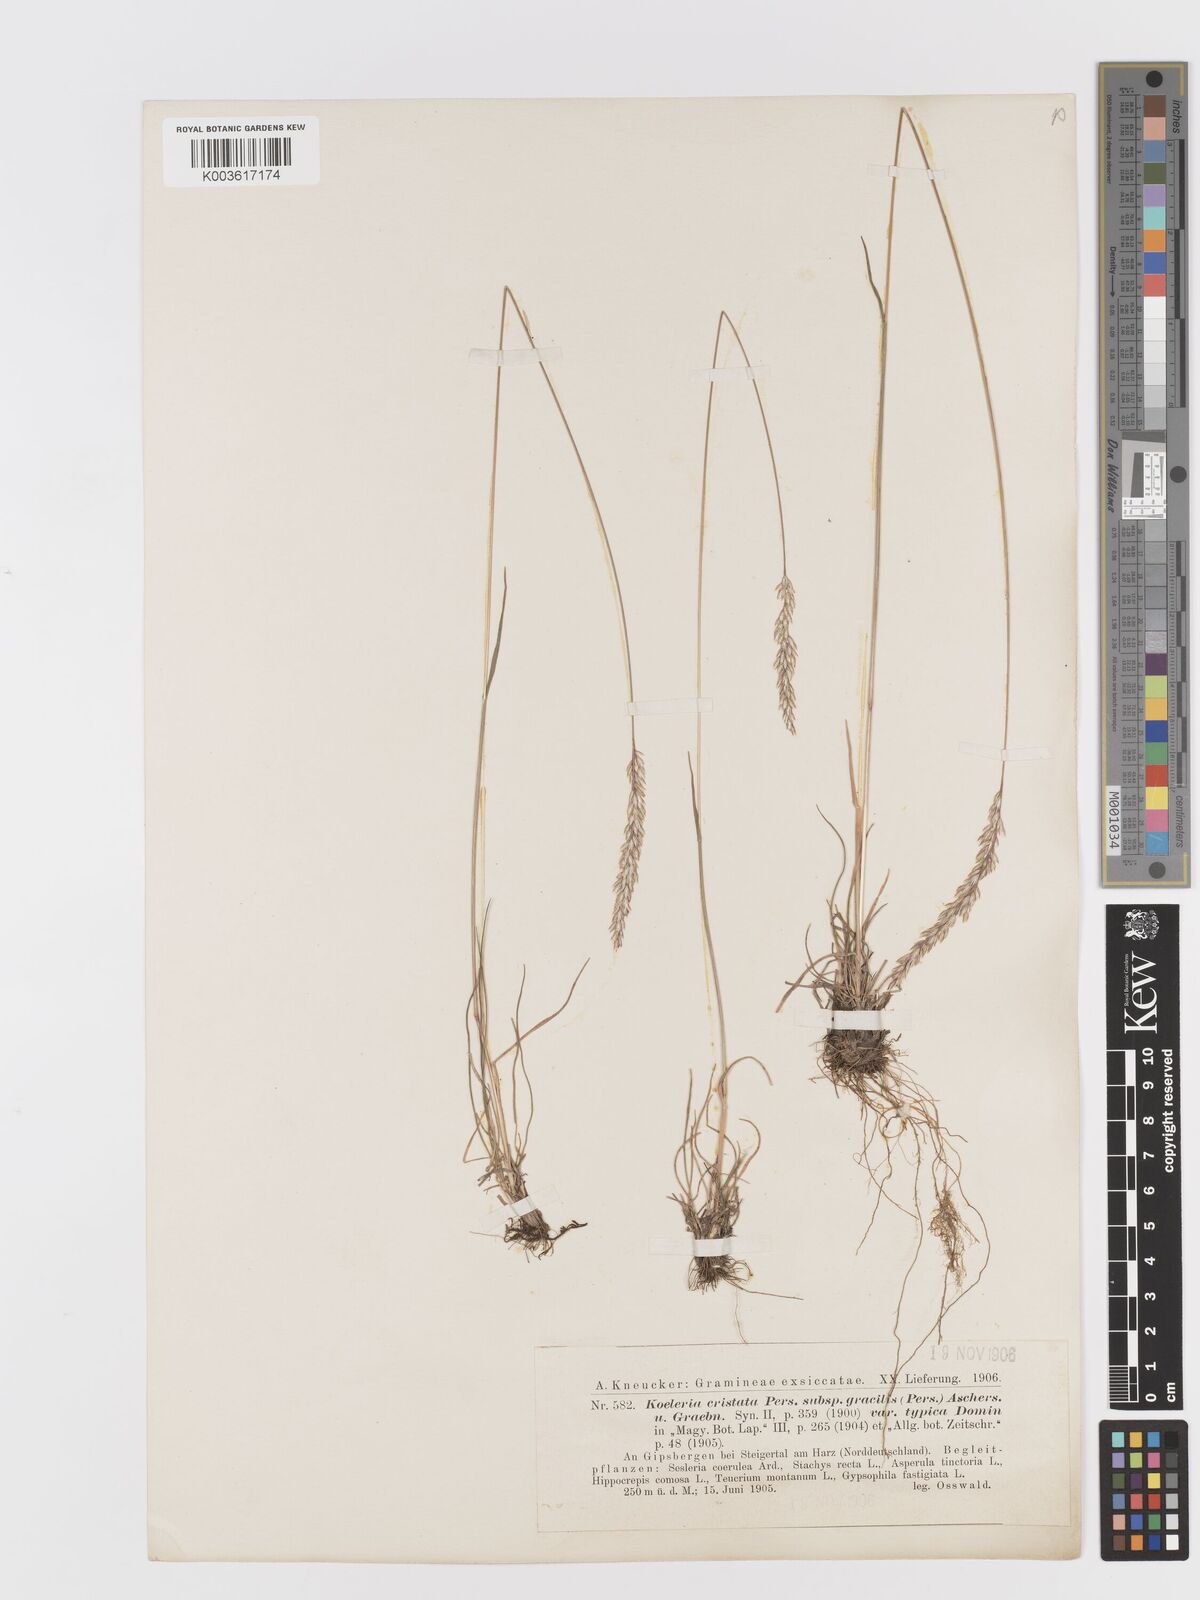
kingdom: Plantae
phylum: Tracheophyta
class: Liliopsida
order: Poales
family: Poaceae
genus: Koeleria
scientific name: Koeleria macrantha
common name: Crested hair-grass
